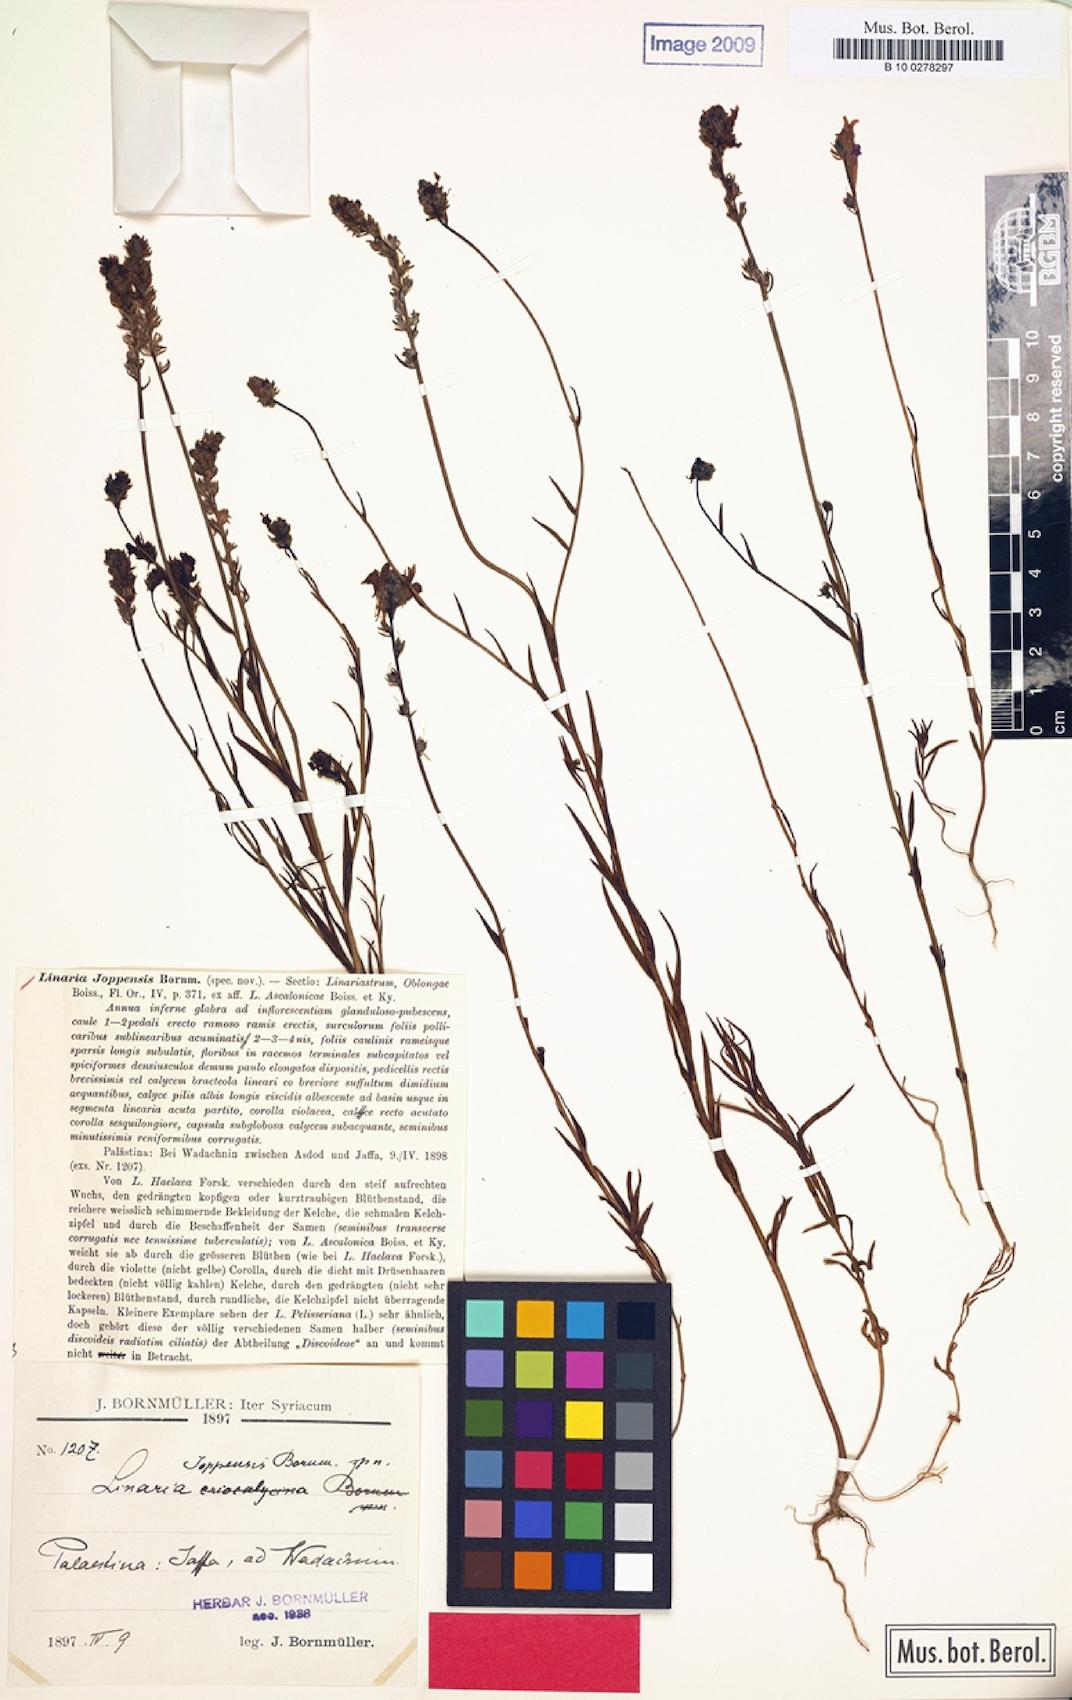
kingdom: Plantae
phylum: Tracheophyta
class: Magnoliopsida
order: Lamiales
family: Plantaginaceae
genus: Linaria
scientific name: Linaria joppensis
